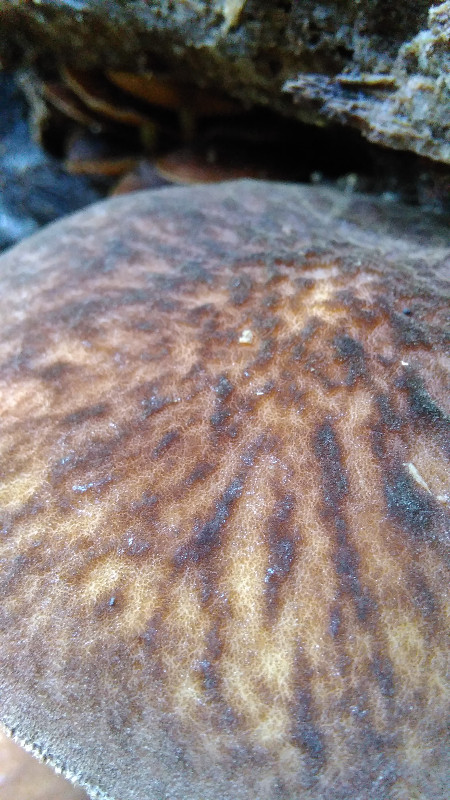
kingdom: Fungi
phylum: Basidiomycota
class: Agaricomycetes
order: Agaricales
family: Pluteaceae
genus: Pluteus
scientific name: Pluteus umbrosus
